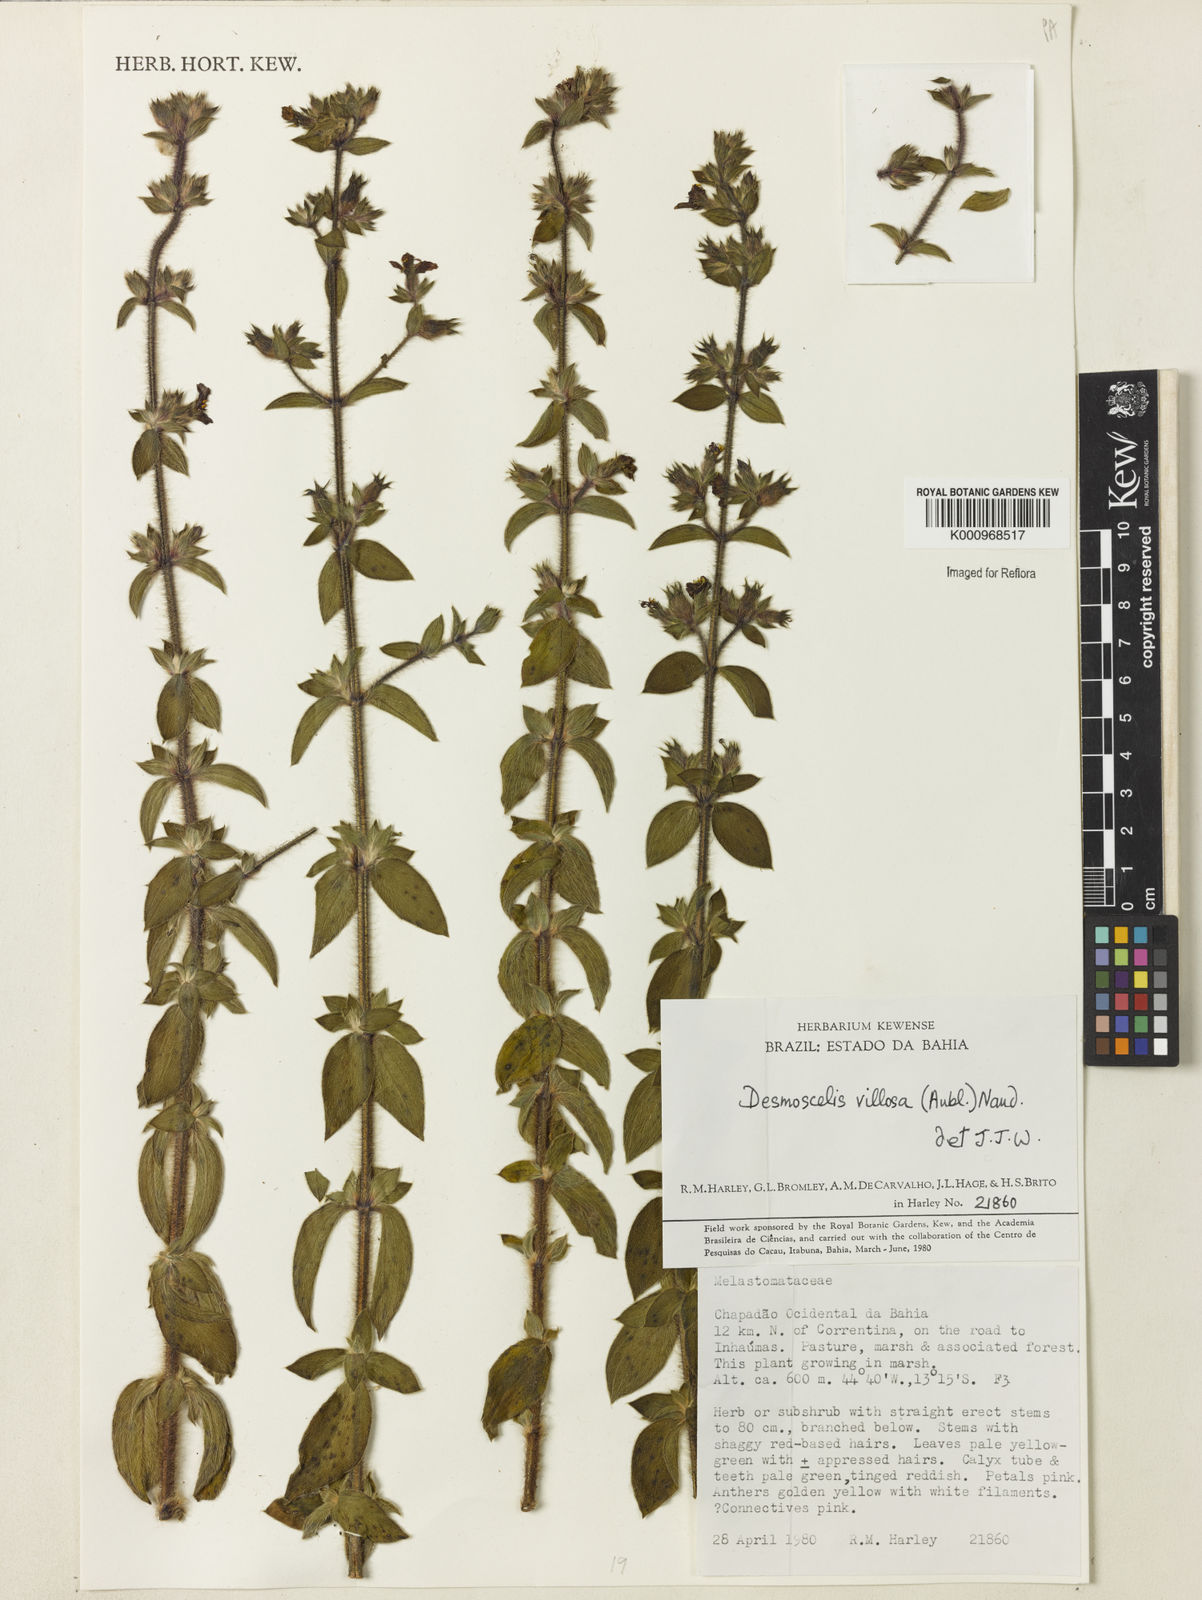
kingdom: Plantae
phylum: Tracheophyta
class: Magnoliopsida
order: Myrtales
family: Melastomataceae
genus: Desmoscelis
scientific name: Desmoscelis villosa
